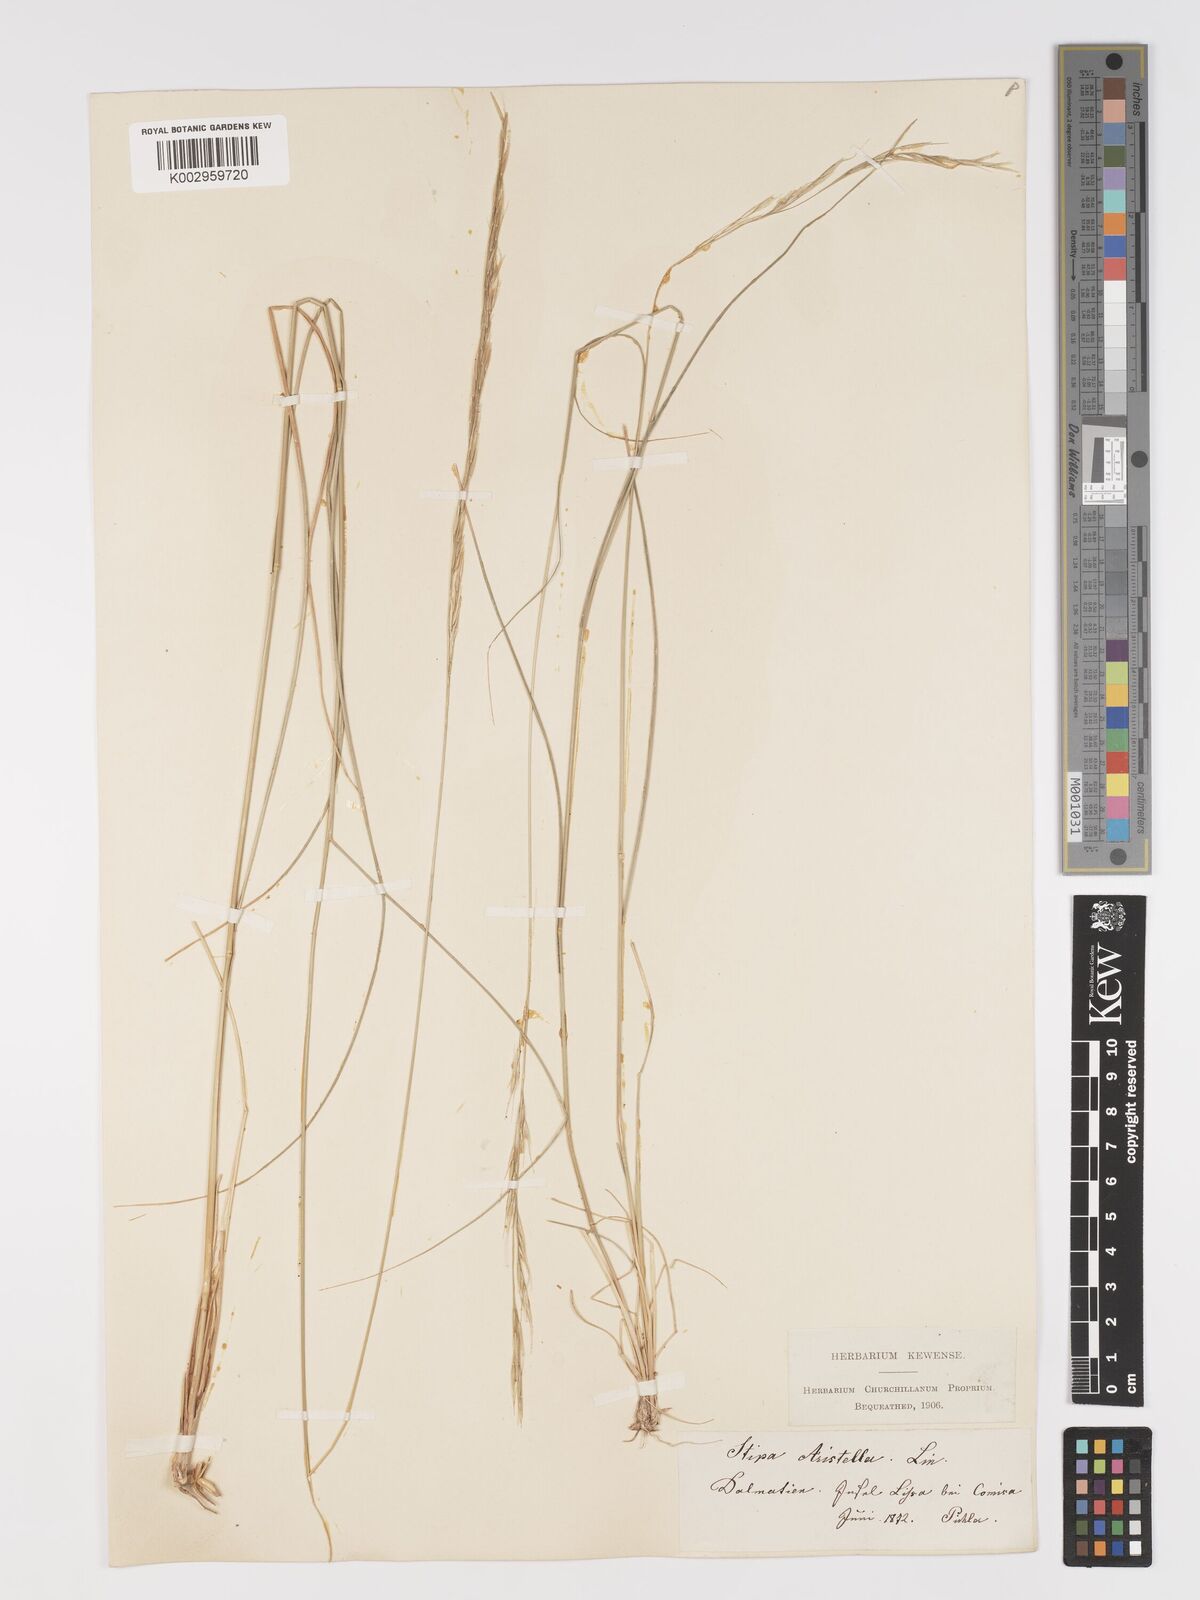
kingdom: Plantae
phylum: Tracheophyta
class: Liliopsida
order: Poales
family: Poaceae
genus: Achnatherum
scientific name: Achnatherum bromoides
